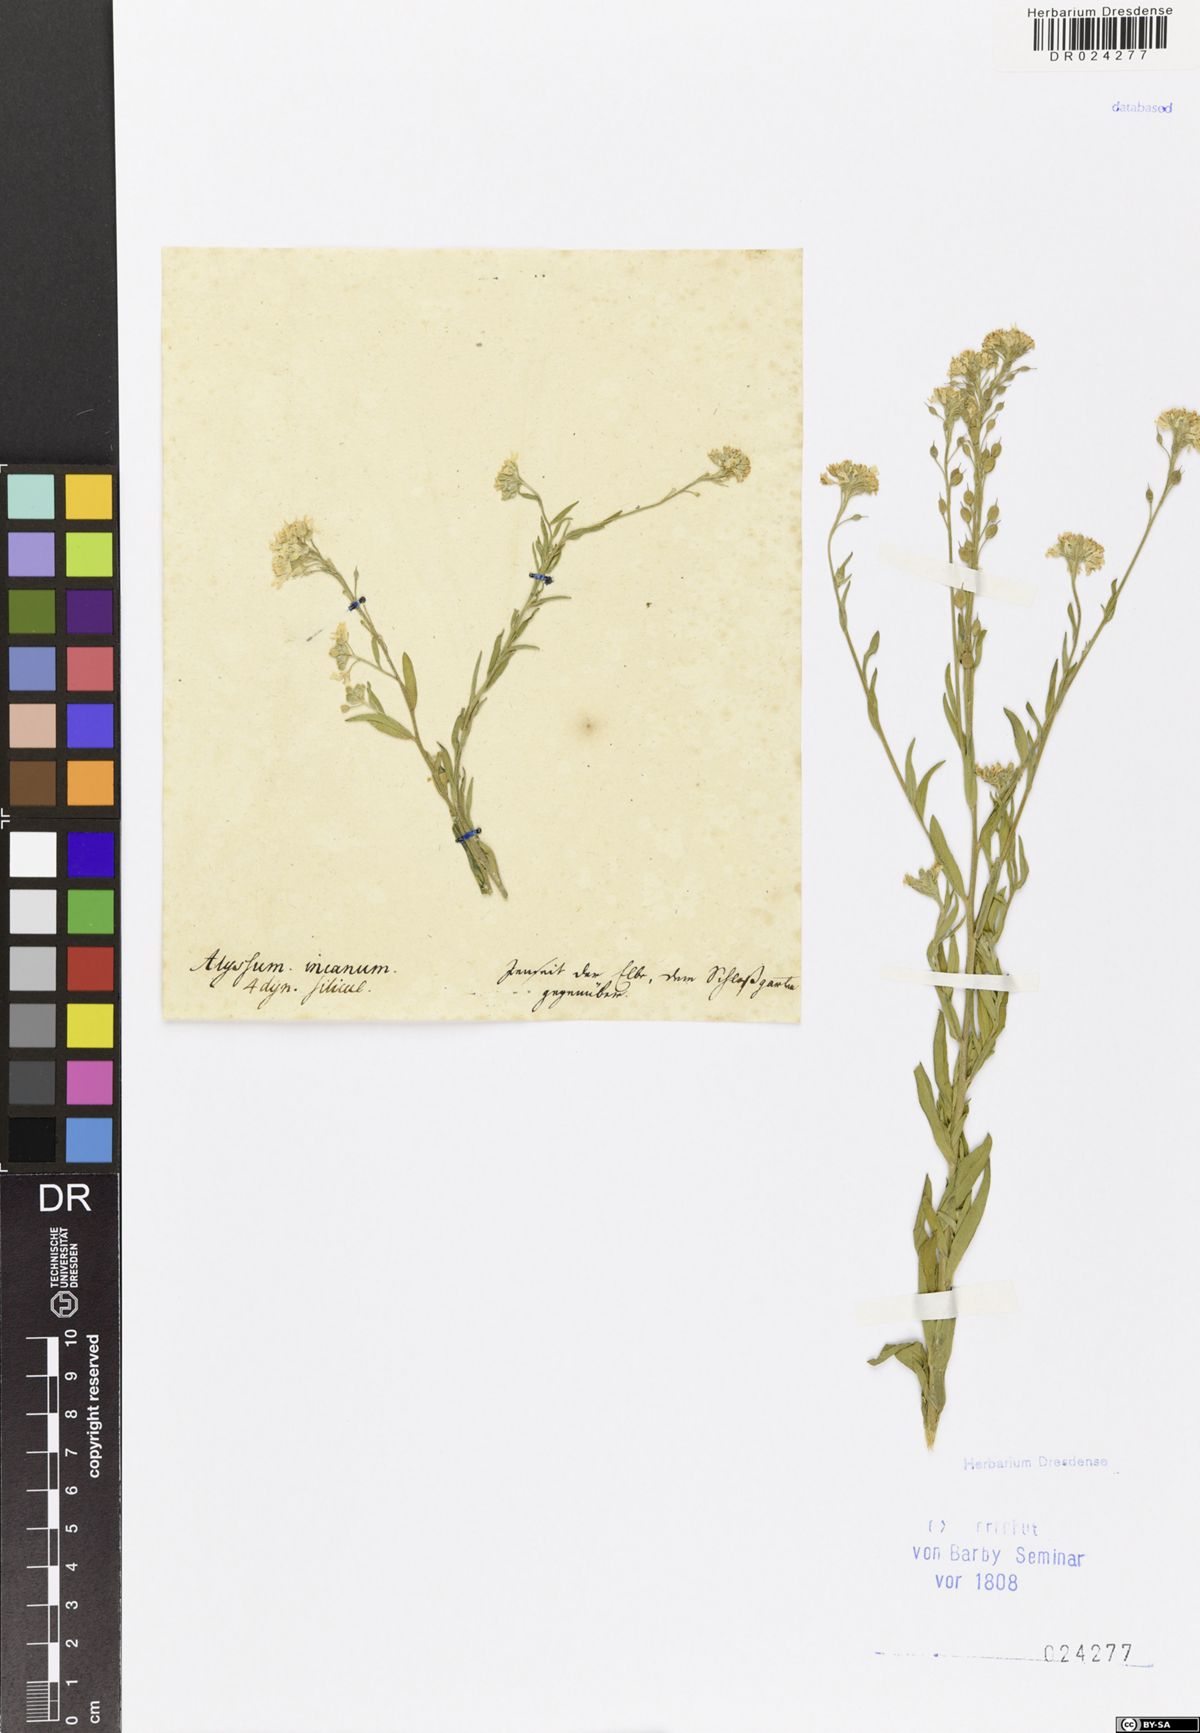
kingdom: Plantae
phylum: Tracheophyta
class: Magnoliopsida
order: Brassicales
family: Brassicaceae
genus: Berteroa
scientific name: Berteroa incana
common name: Hoary alison
